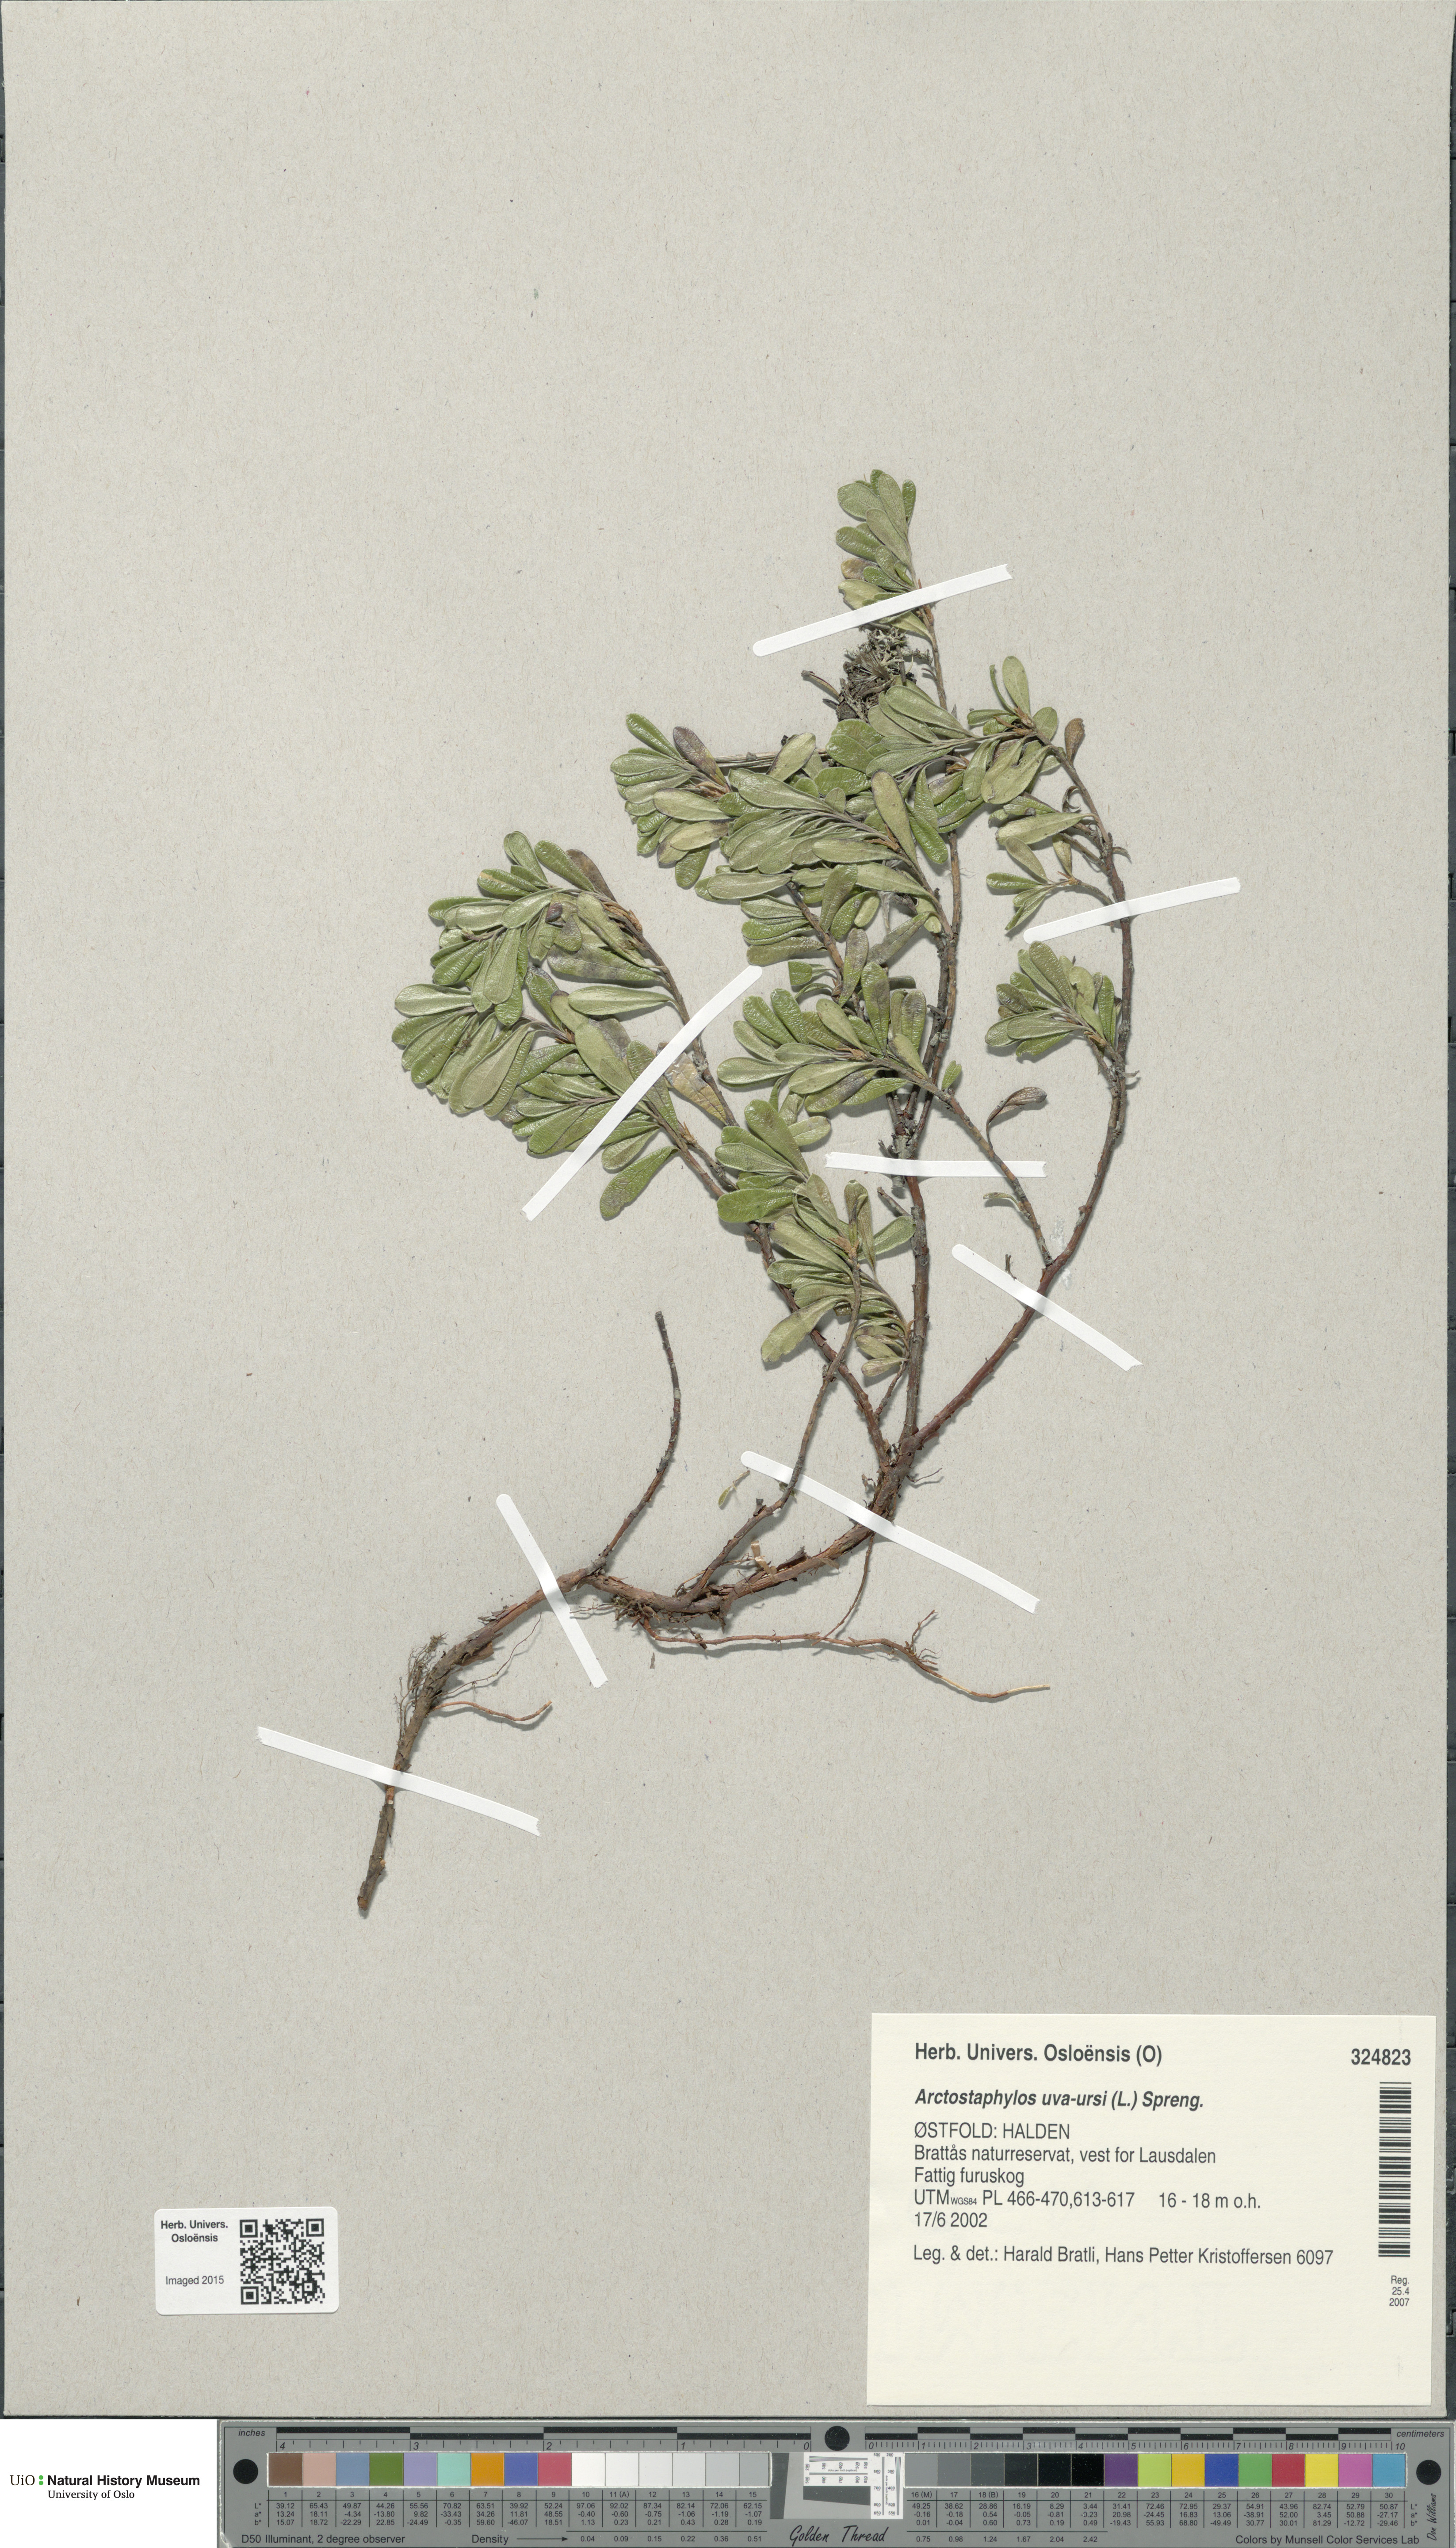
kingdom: Plantae
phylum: Tracheophyta
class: Magnoliopsida
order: Ericales
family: Ericaceae
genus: Arctostaphylos
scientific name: Arctostaphylos uva-ursi
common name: Bearberry
